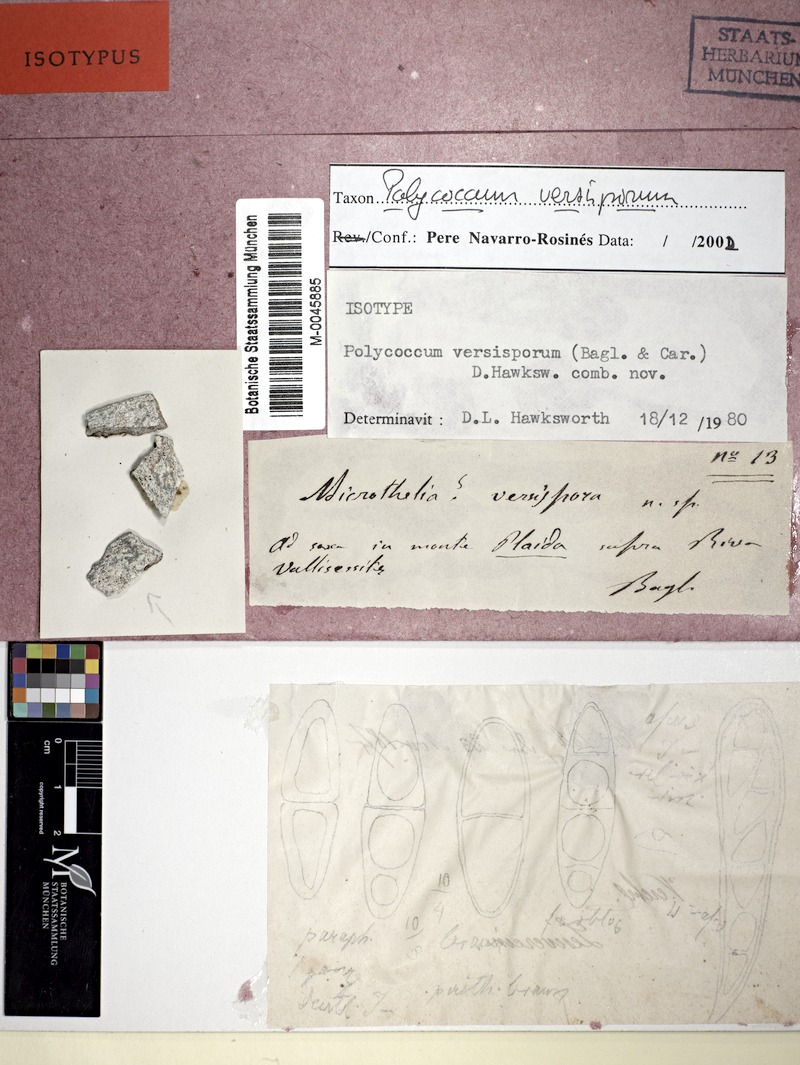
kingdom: Fungi
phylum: Ascomycota
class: Dothideomycetes
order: Pleosporales
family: Dacampiaceae
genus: Polycoccum
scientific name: Polycoccum versisporum
